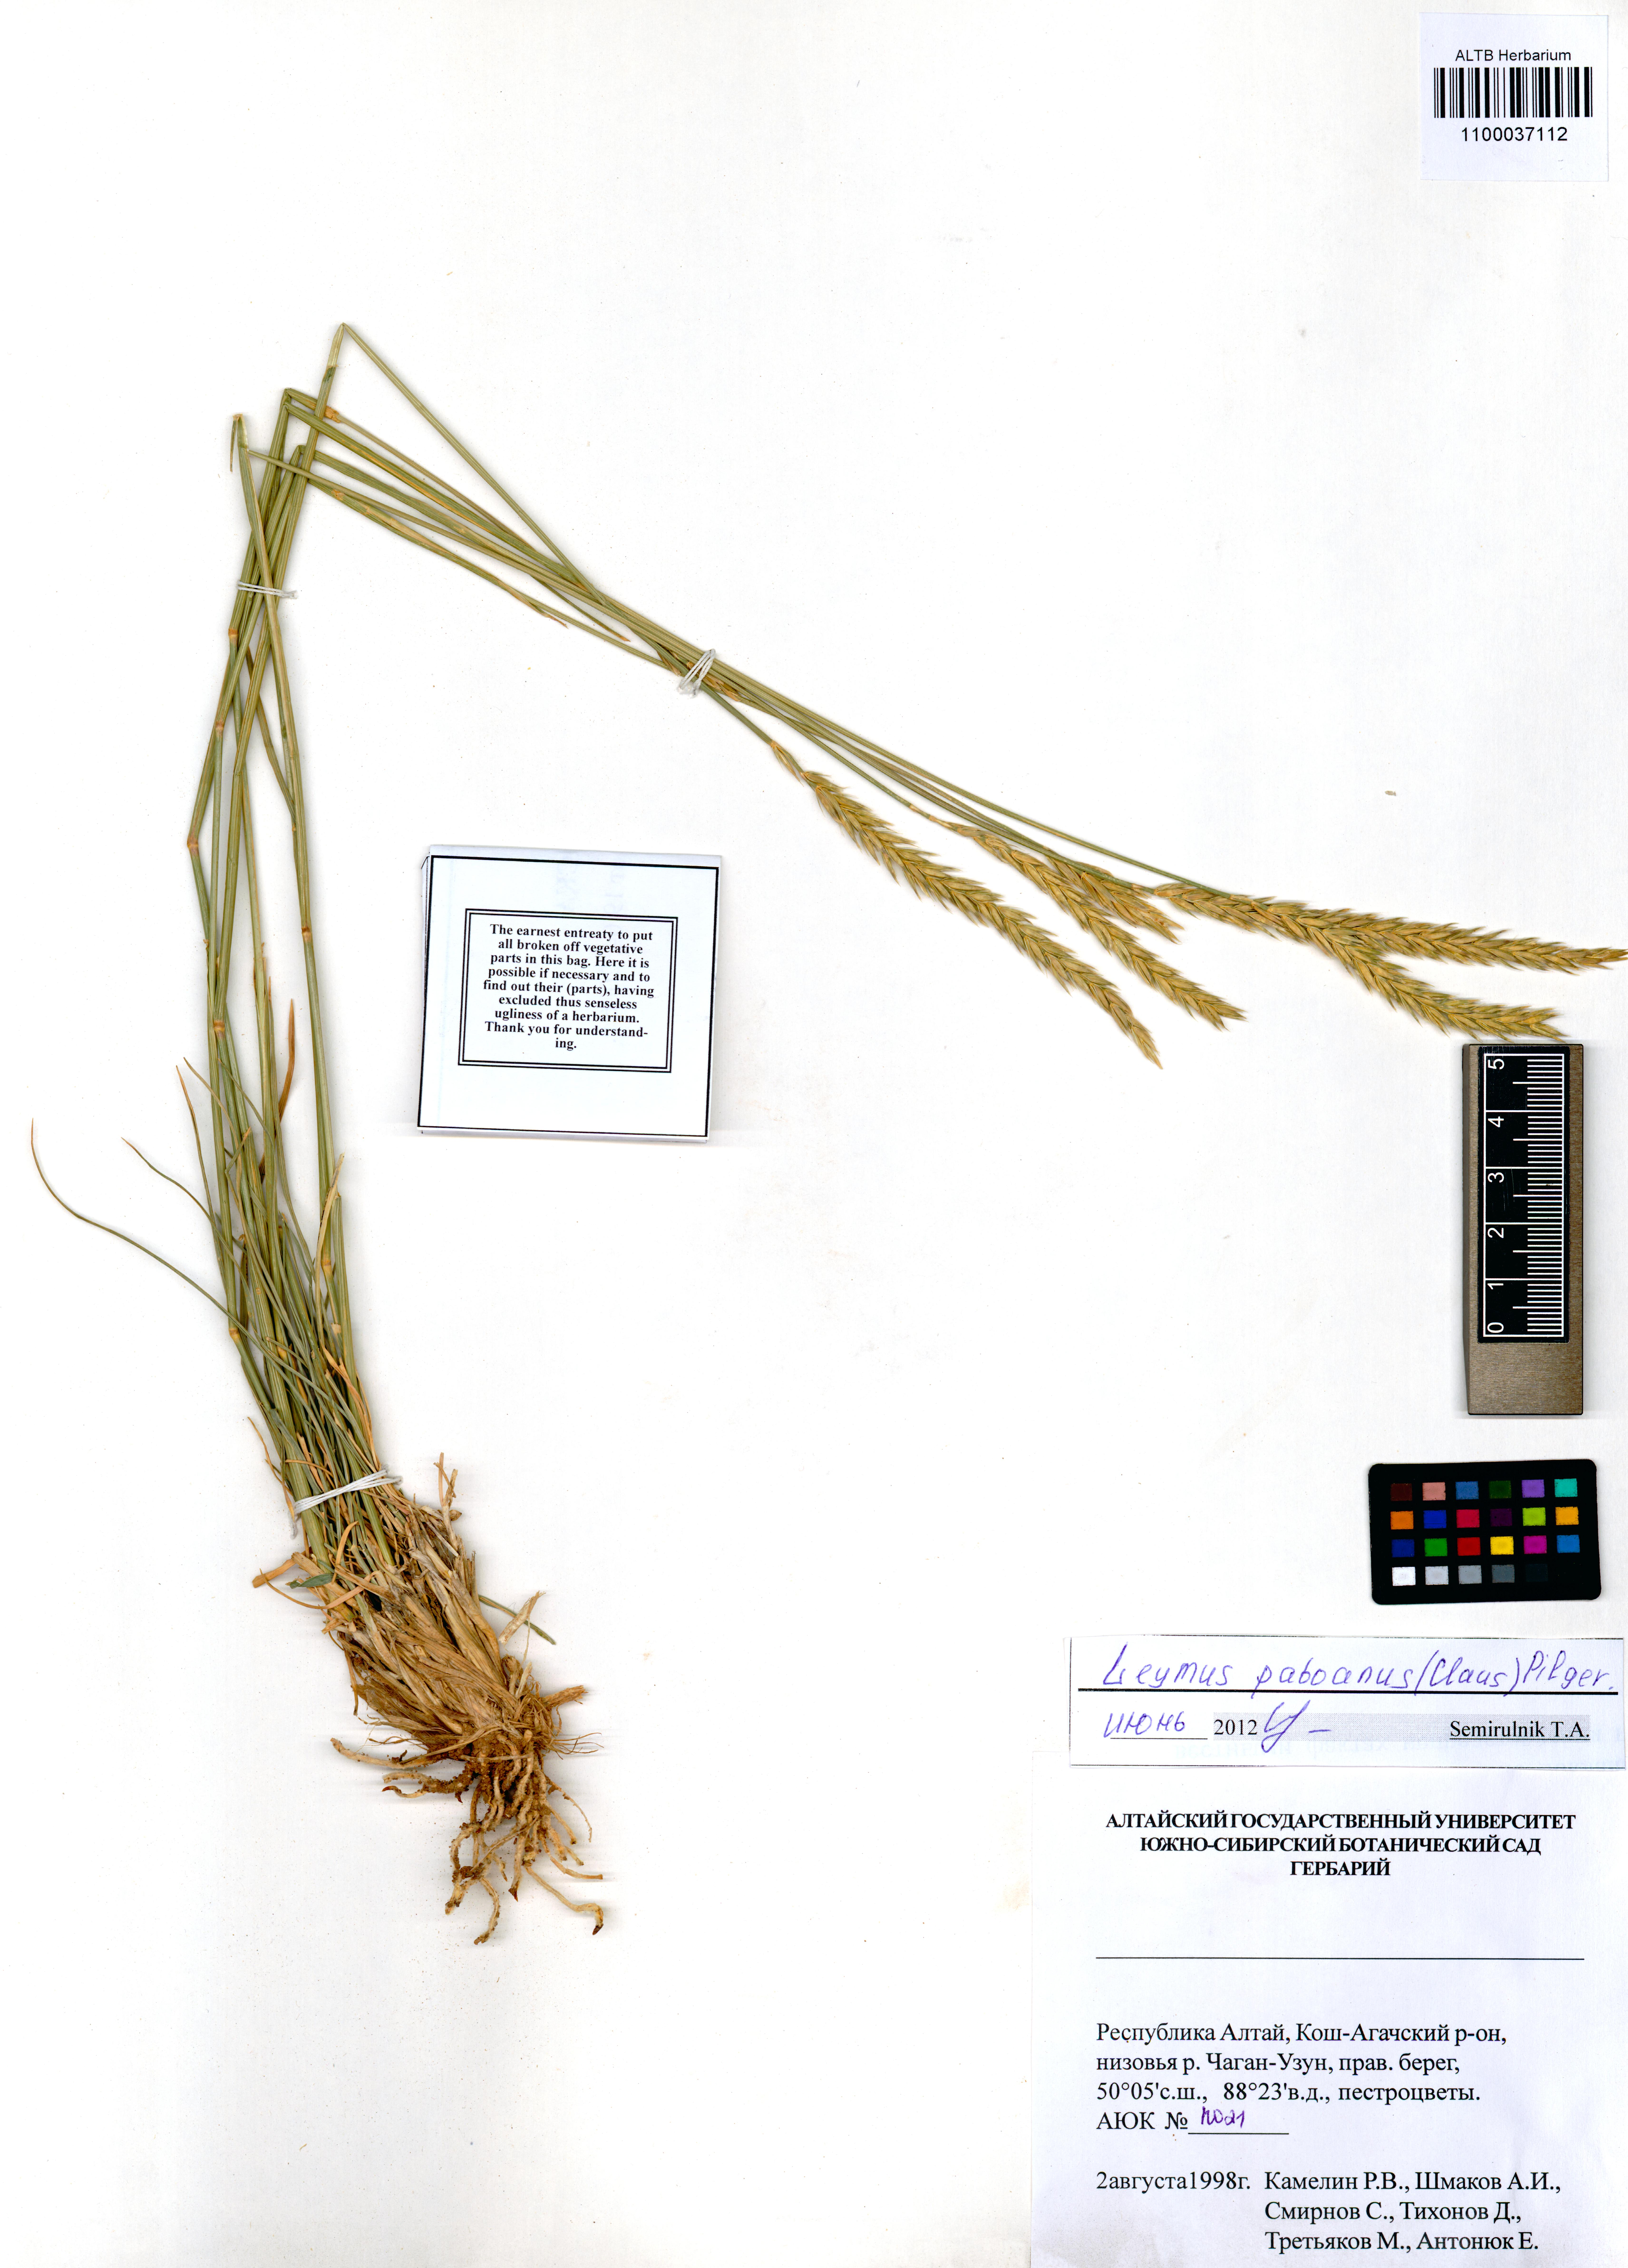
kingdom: Plantae
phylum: Tracheophyta
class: Liliopsida
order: Poales
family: Poaceae
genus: Leymus
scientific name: Leymus paboanus
